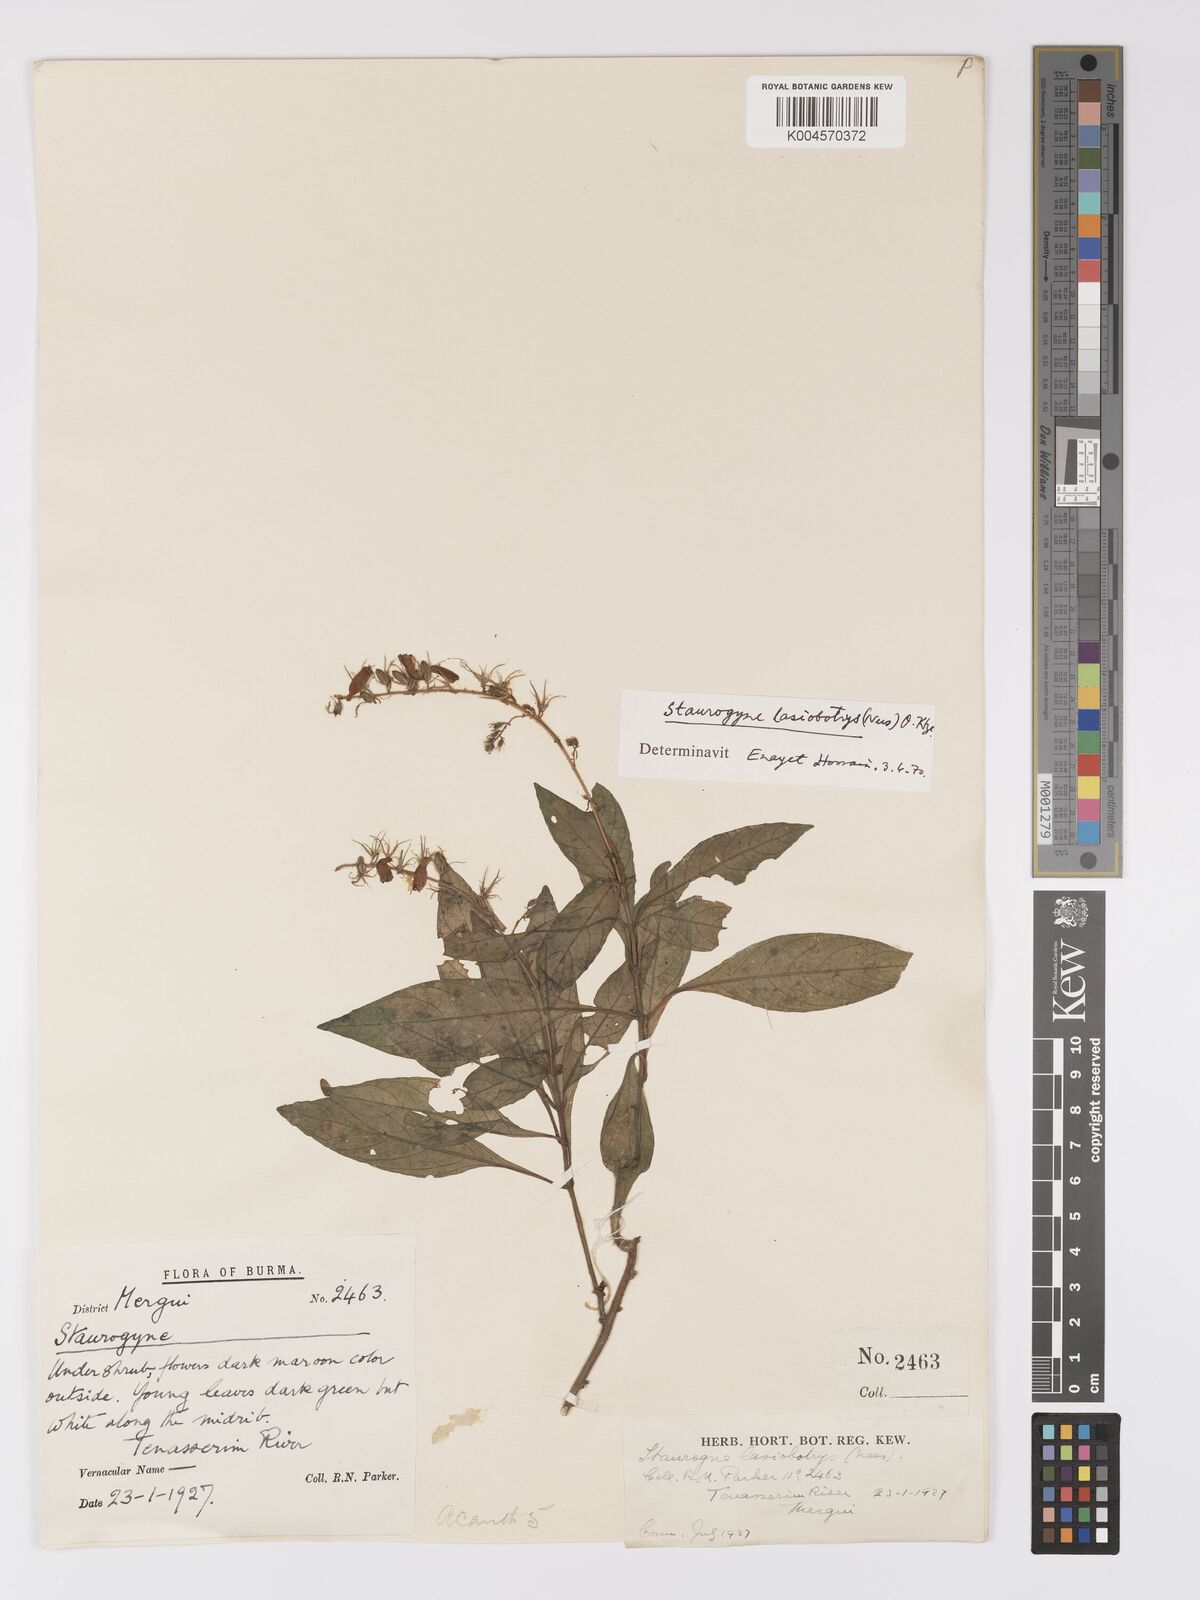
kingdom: Plantae
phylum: Tracheophyta
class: Magnoliopsida
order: Lamiales
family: Acanthaceae
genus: Staurogyne
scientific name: Staurogyne lasiobotrys
